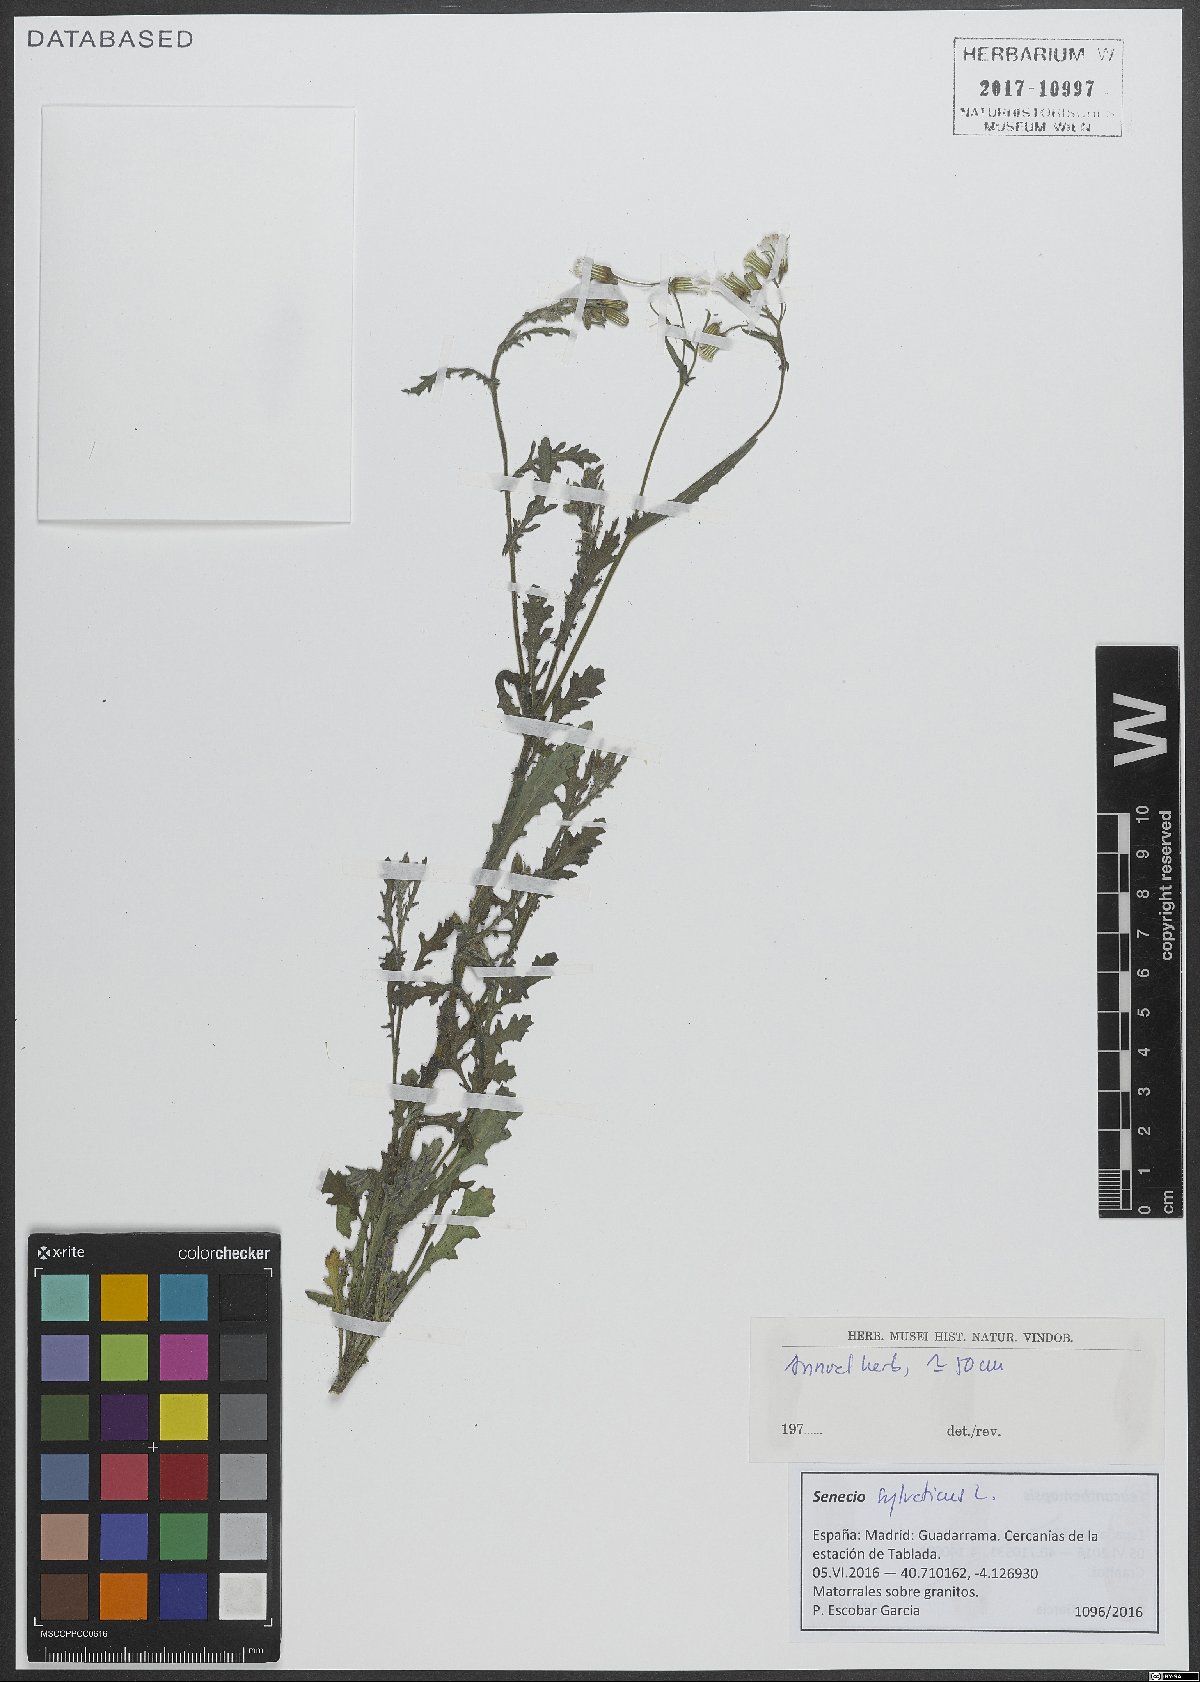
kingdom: Plantae
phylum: Tracheophyta
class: Magnoliopsida
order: Asterales
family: Asteraceae
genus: Senecio
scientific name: Senecio sylvaticus
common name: Woodland ragwort
